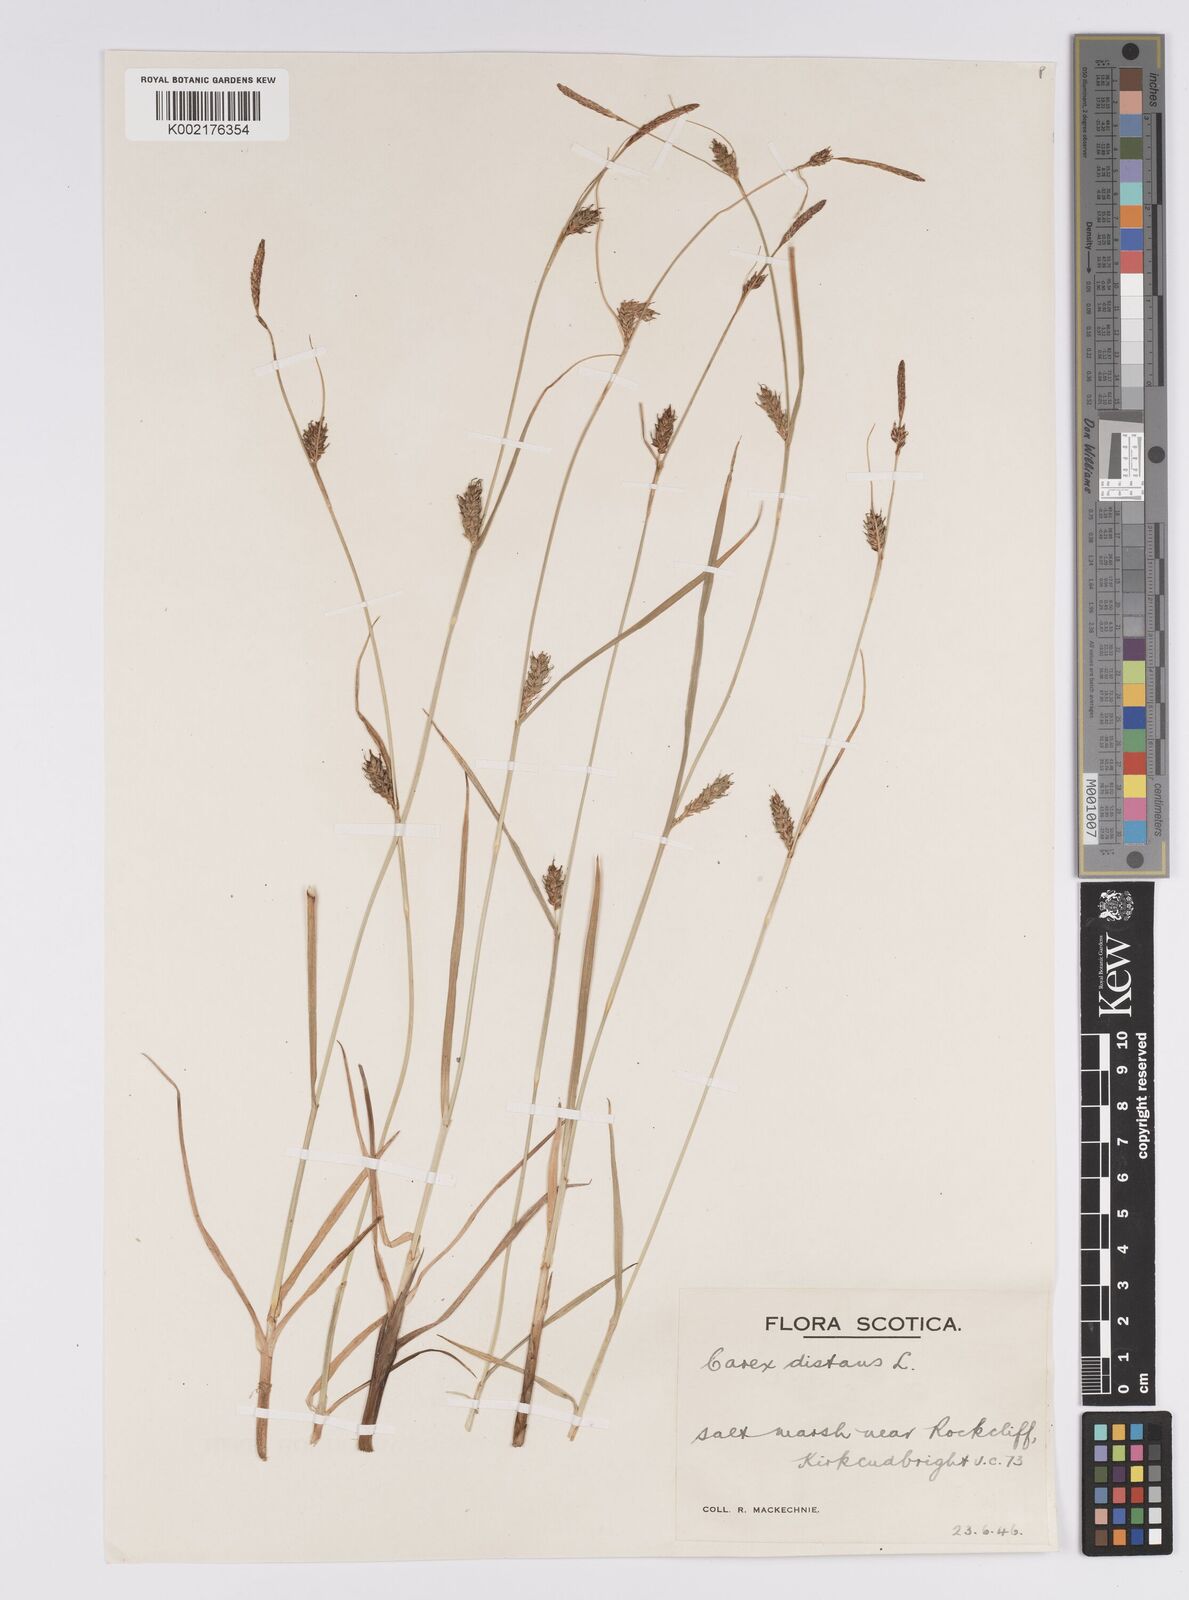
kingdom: Plantae
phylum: Tracheophyta
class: Liliopsida
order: Poales
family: Cyperaceae
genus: Carex
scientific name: Carex distans
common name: Distant sedge
